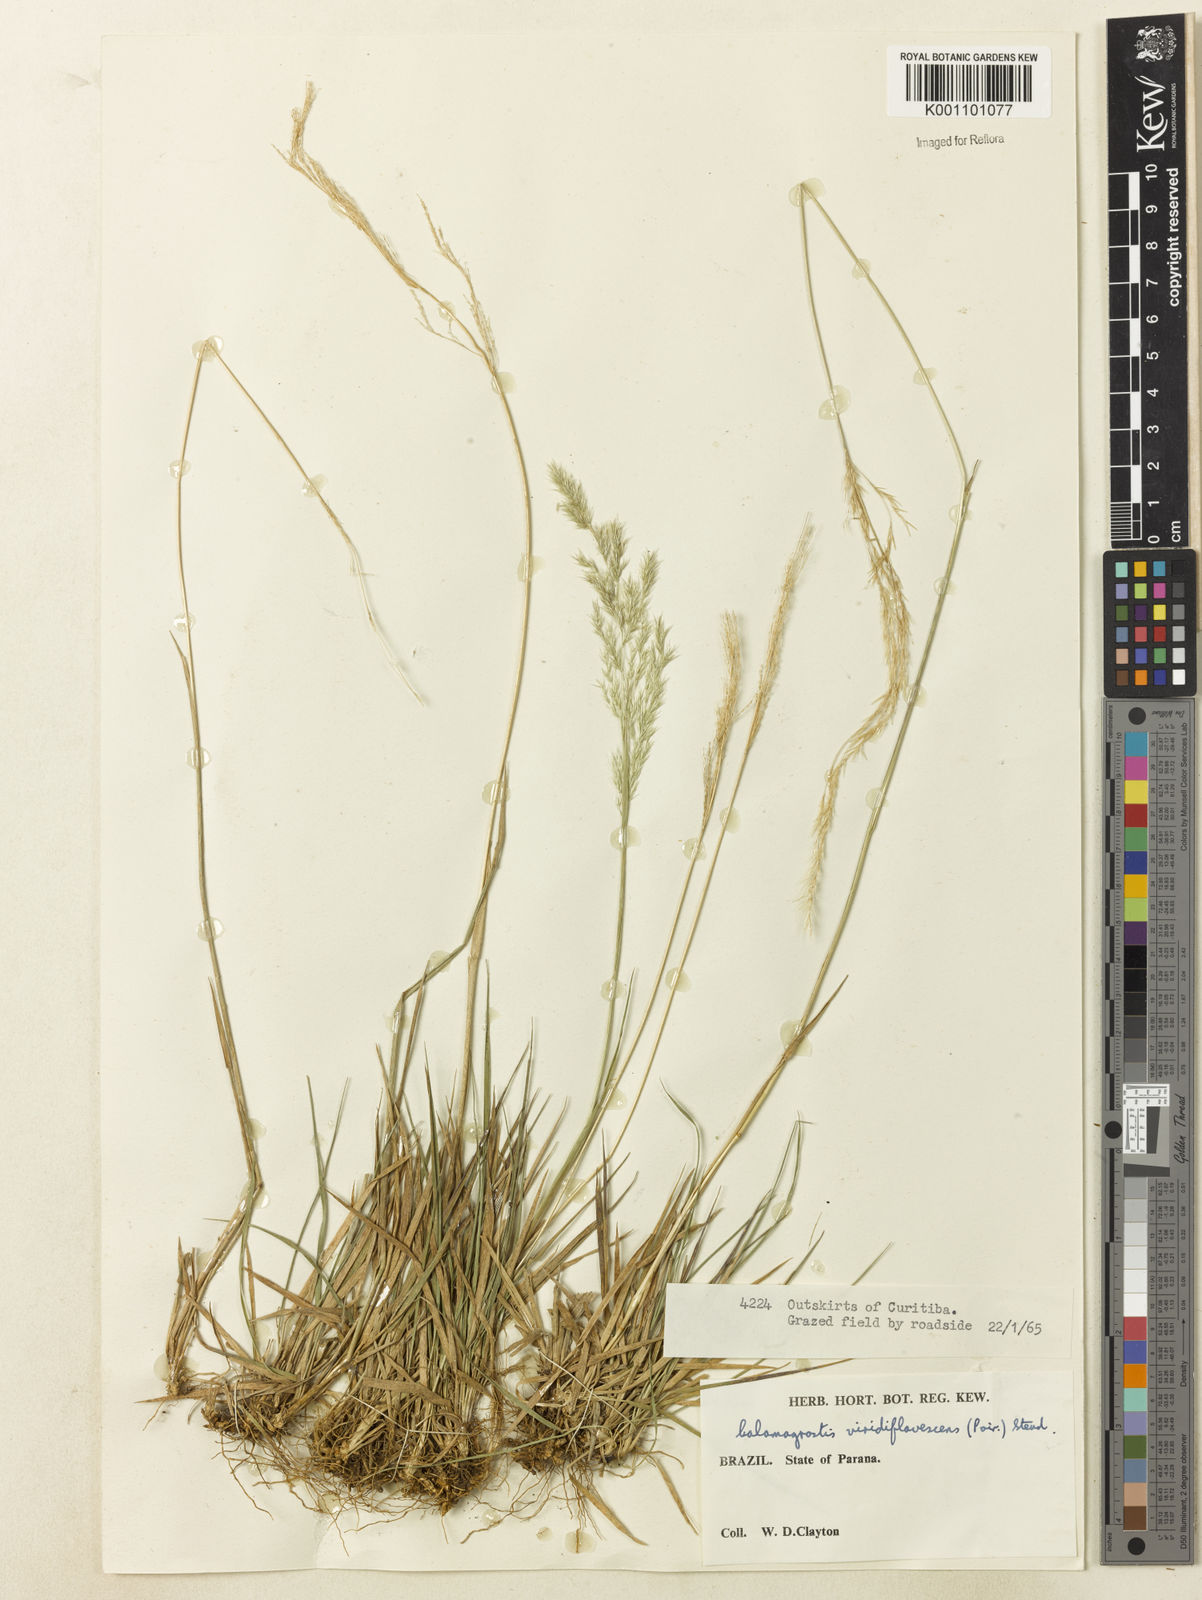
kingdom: Plantae
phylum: Tracheophyta
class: Liliopsida
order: Poales
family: Poaceae
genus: Cinnagrostis
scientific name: Cinnagrostis viridiflavescens
